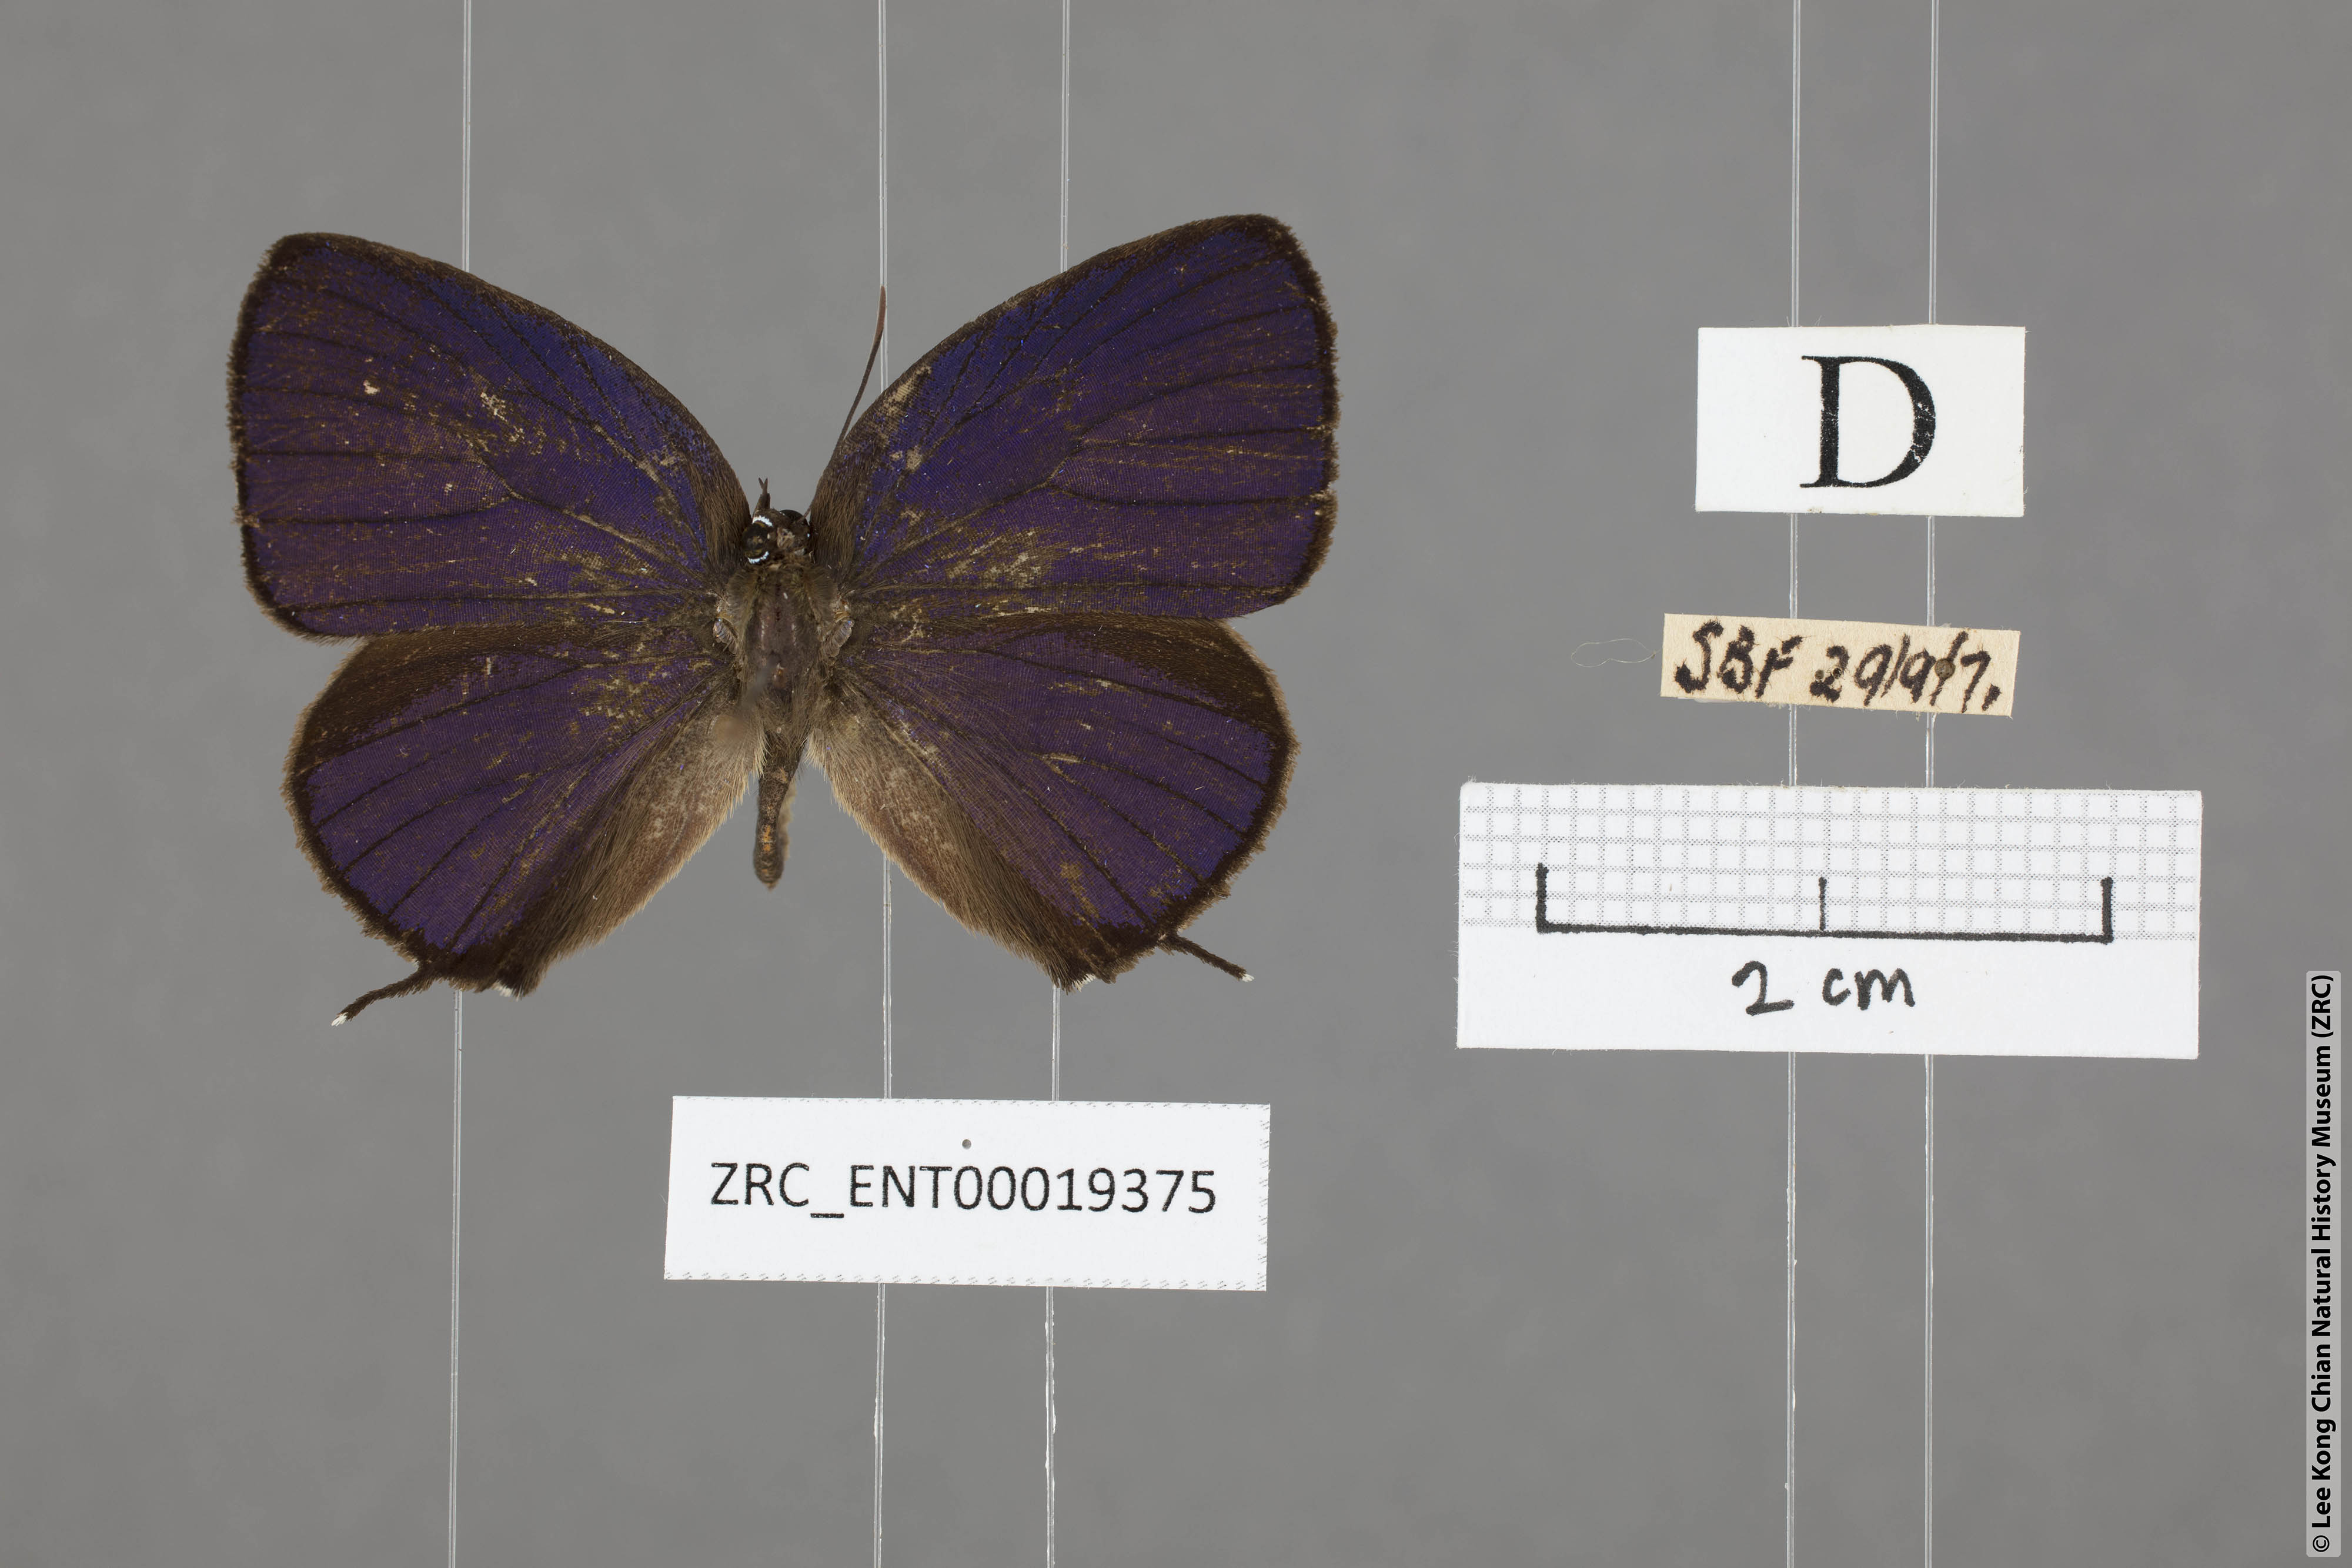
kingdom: Animalia
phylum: Arthropoda
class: Insecta
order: Lepidoptera
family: Lycaenidae
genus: Arhopala
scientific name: Arhopala delta
